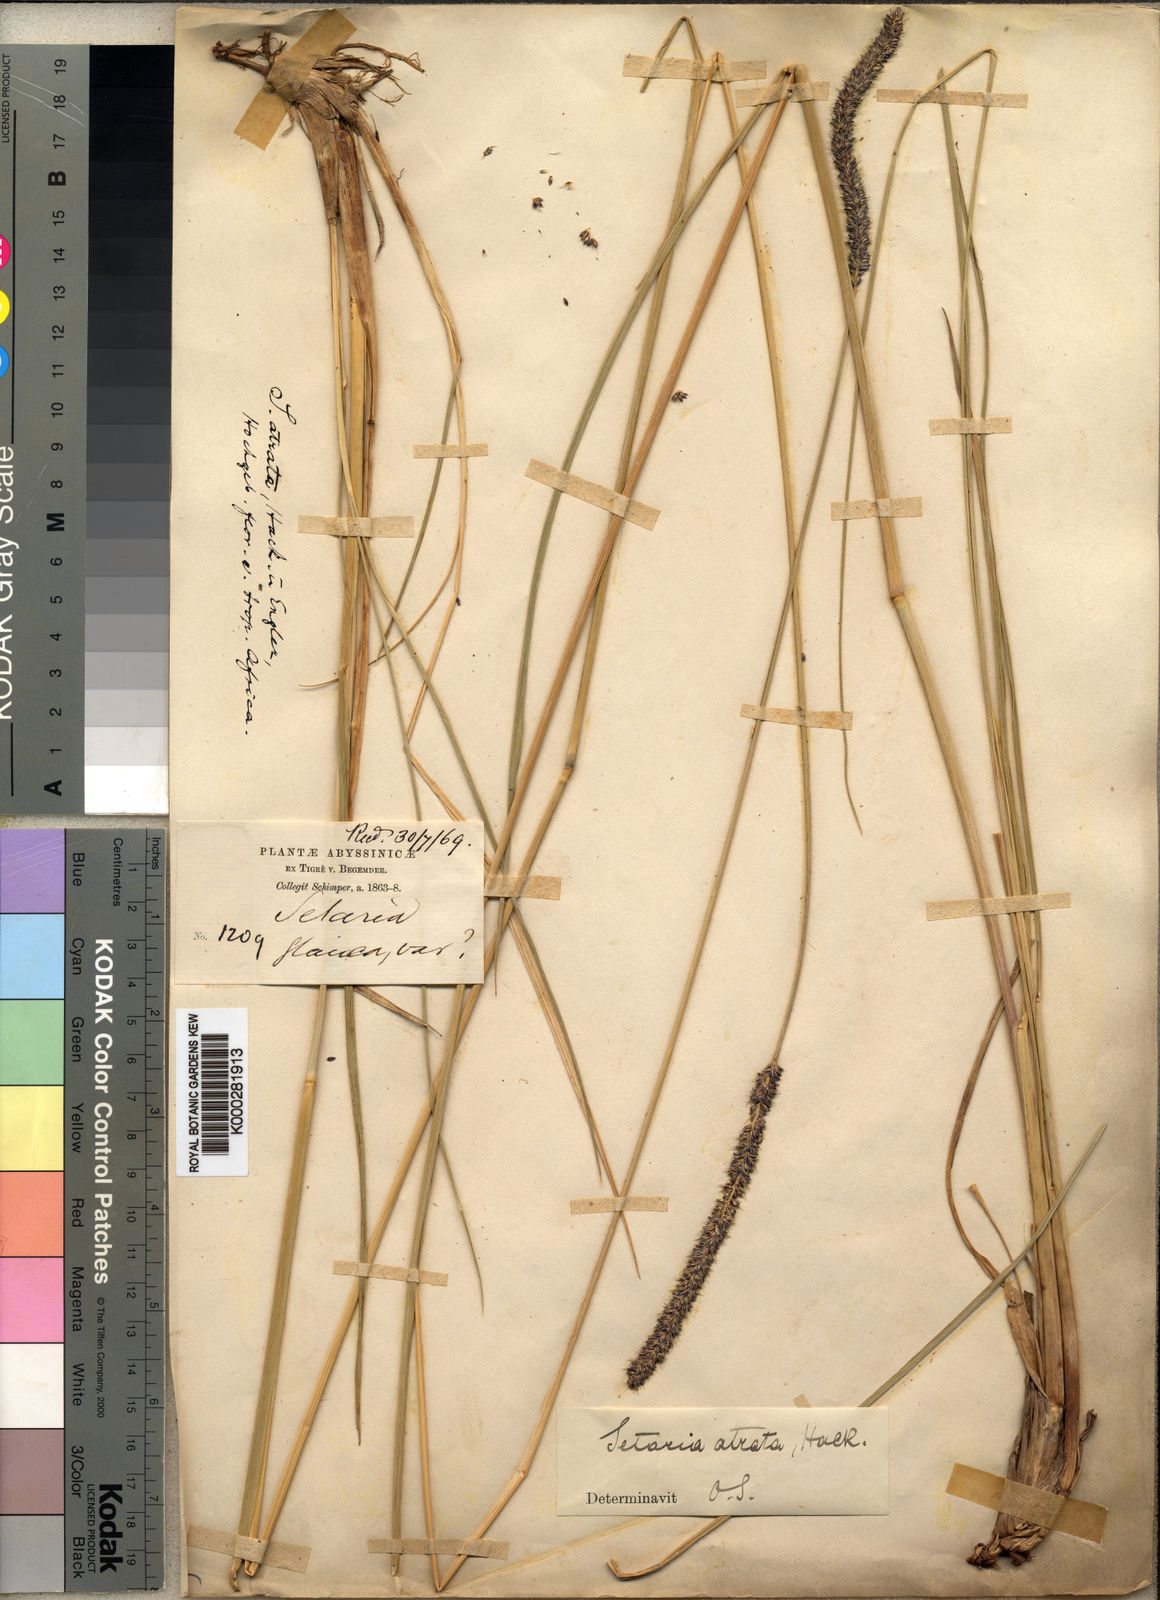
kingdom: Plantae
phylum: Tracheophyta
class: Liliopsida
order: Poales
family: Poaceae
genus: Setaria
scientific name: Setaria
